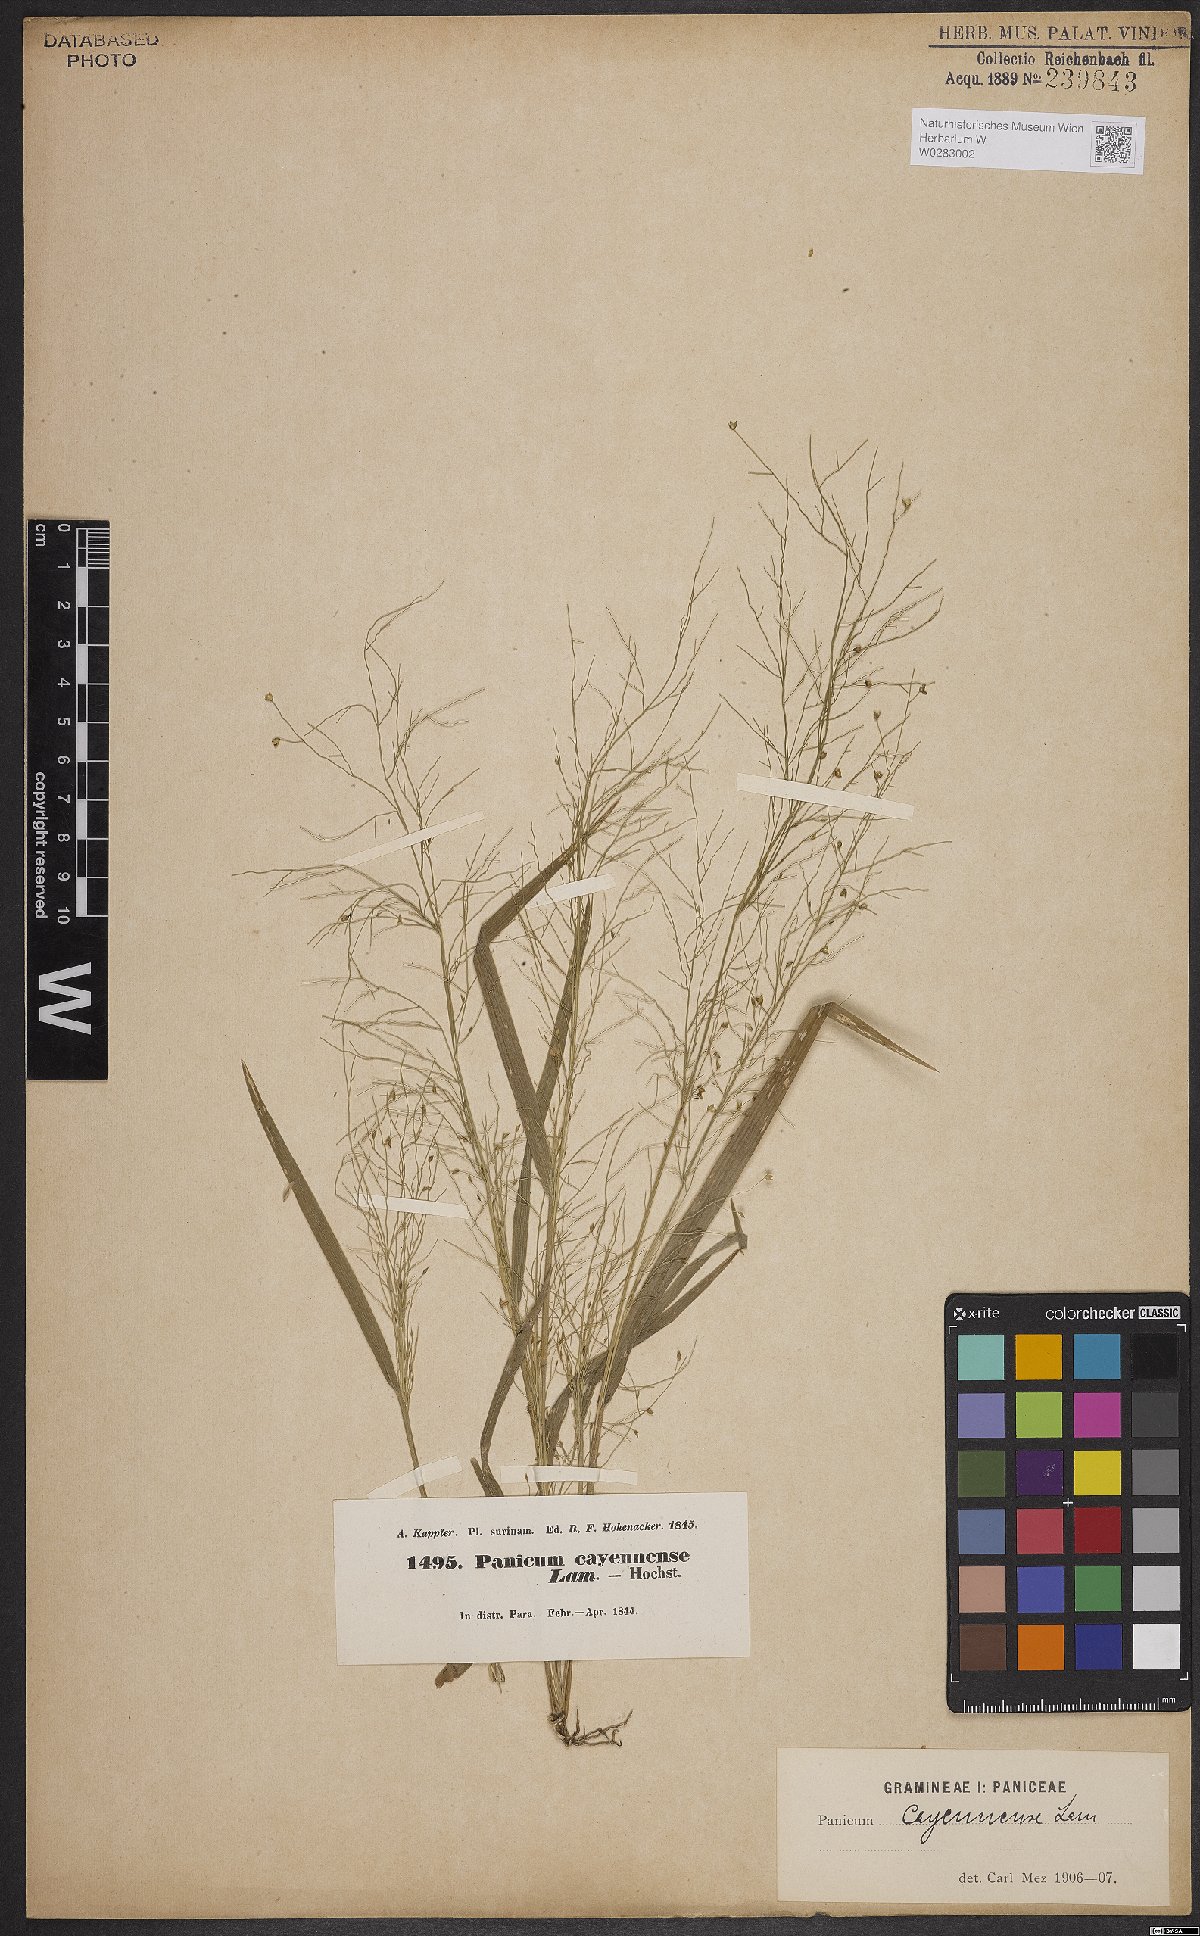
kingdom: Plantae
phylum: Tracheophyta
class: Liliopsida
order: Poales
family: Poaceae
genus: Panicum
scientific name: Panicum cayennense
